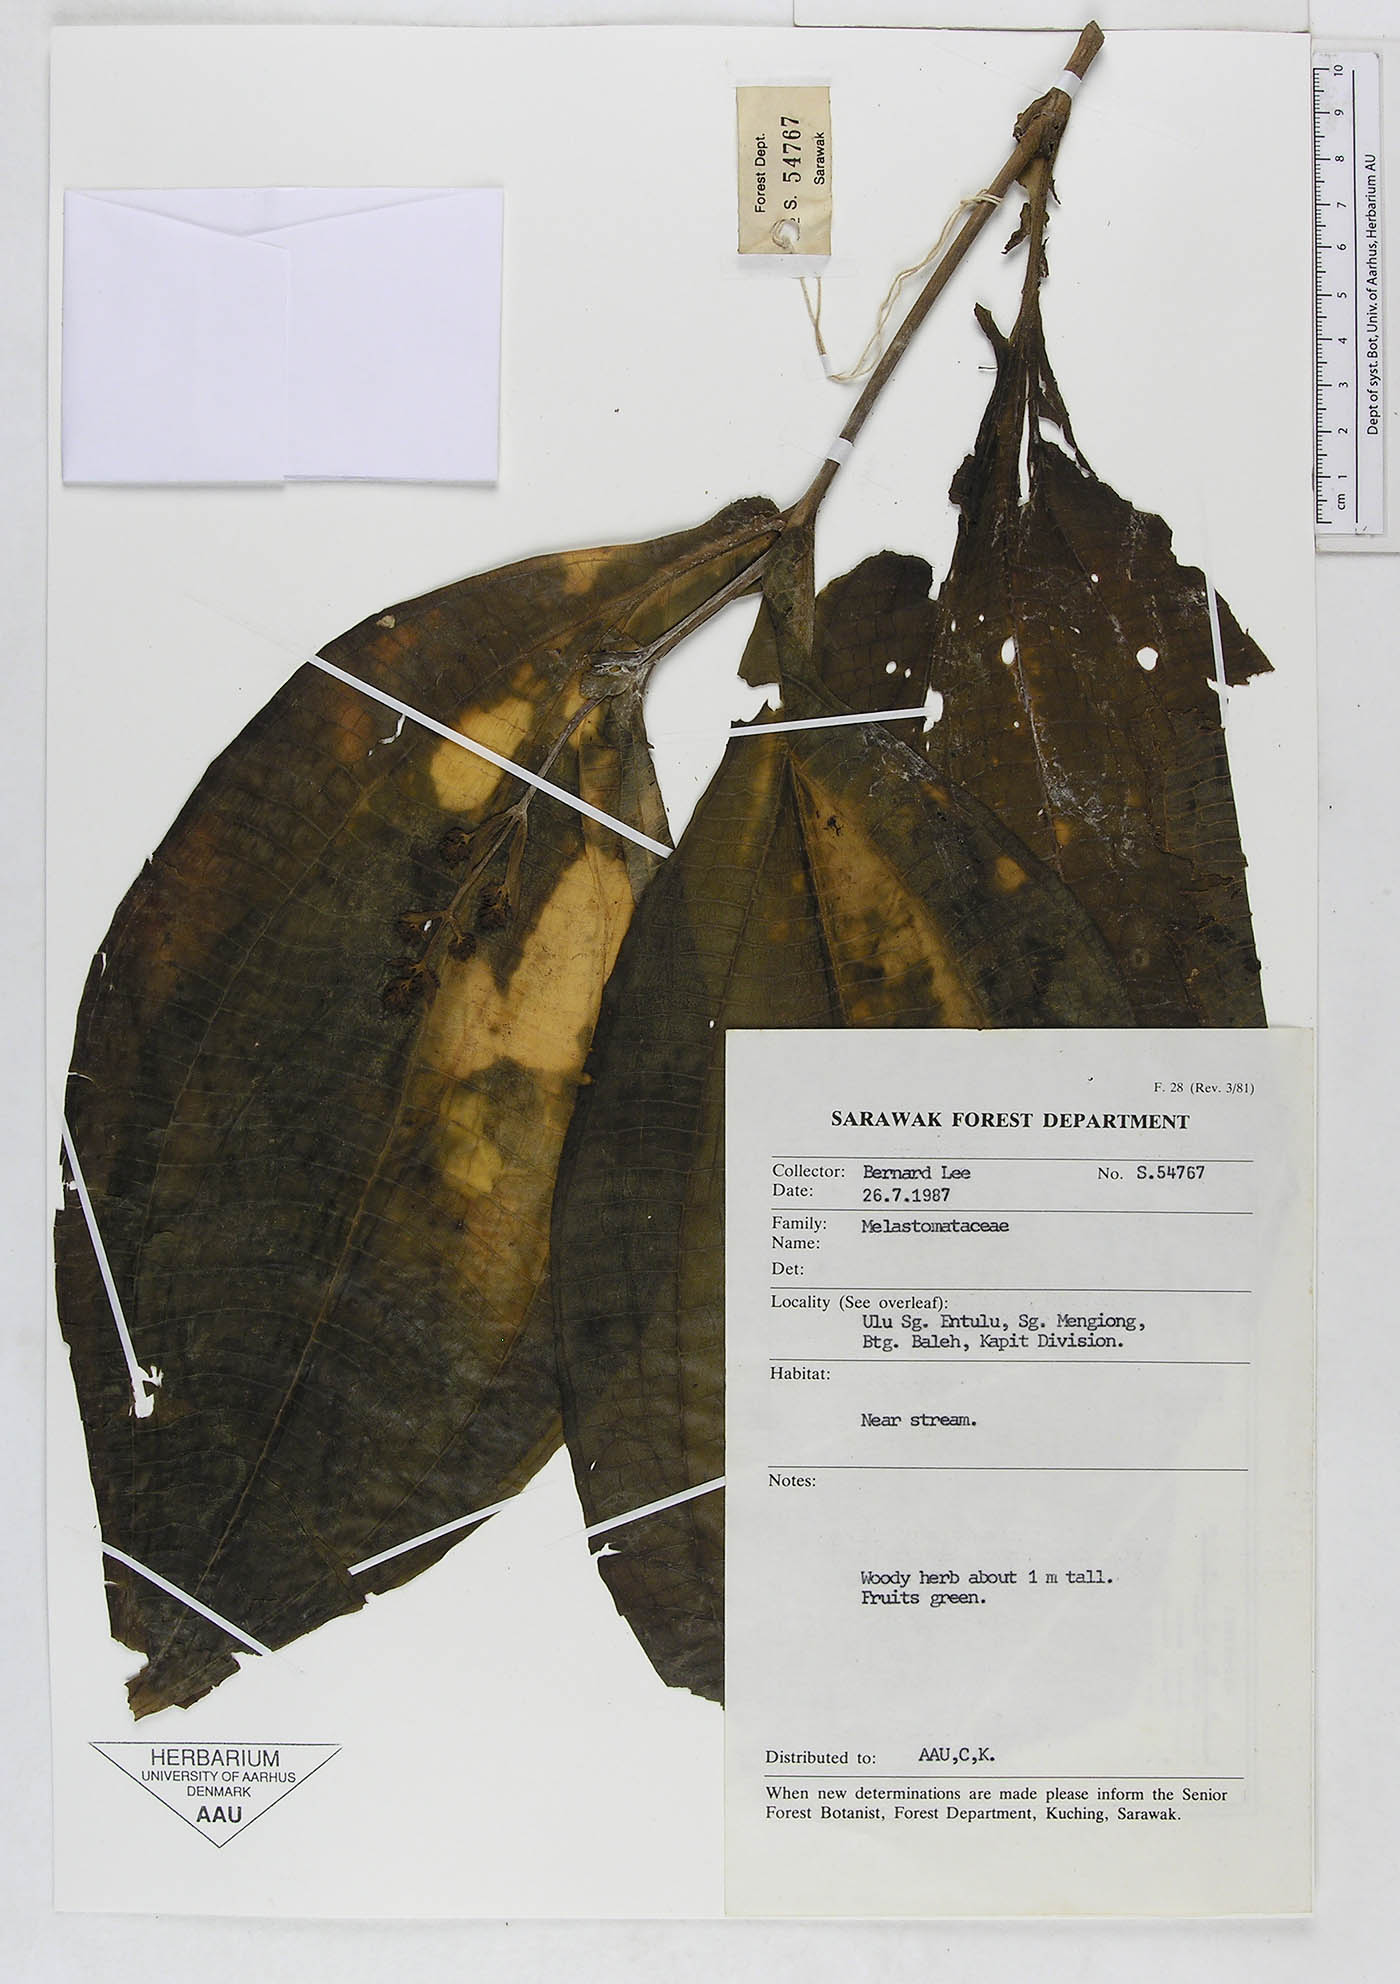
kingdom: Plantae
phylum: Tracheophyta
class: Magnoliopsida
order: Myrtales
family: Melastomataceae
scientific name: Melastomataceae
